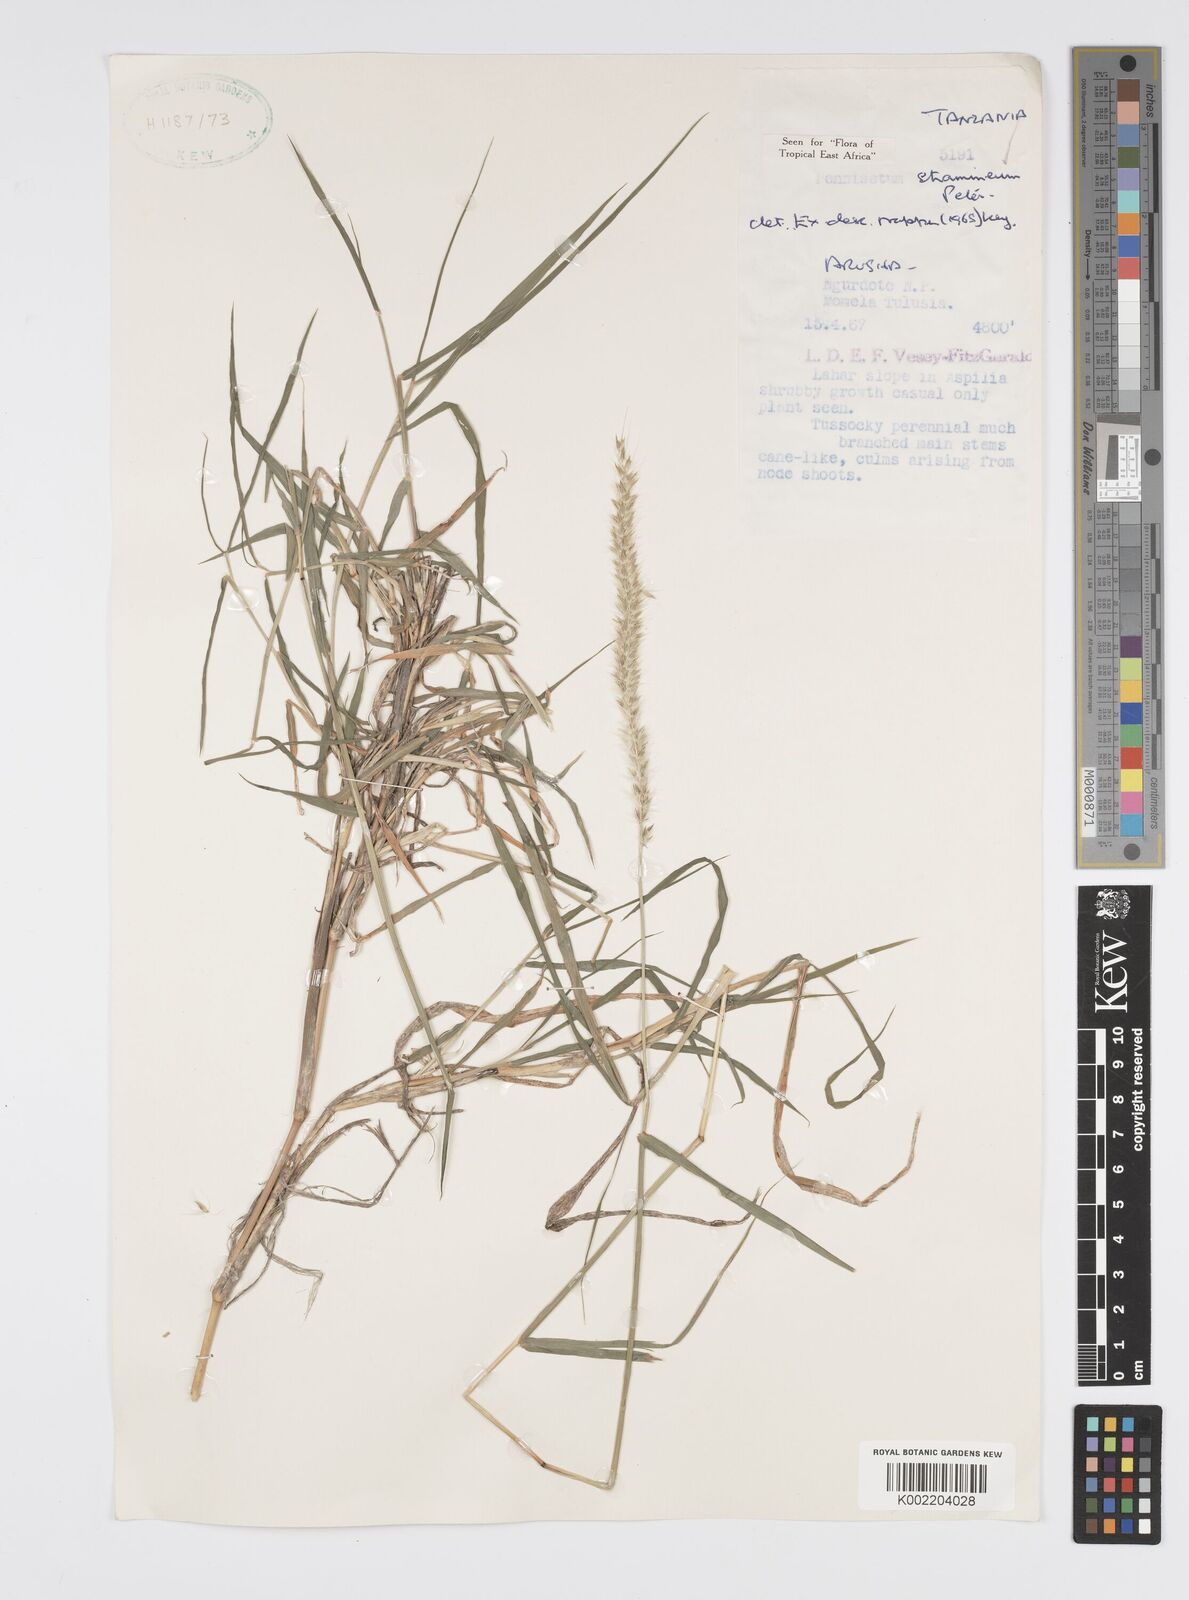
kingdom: Plantae
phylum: Tracheophyta
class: Liliopsida
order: Poales
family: Poaceae
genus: Cenchrus
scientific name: Cenchrus stramineus
